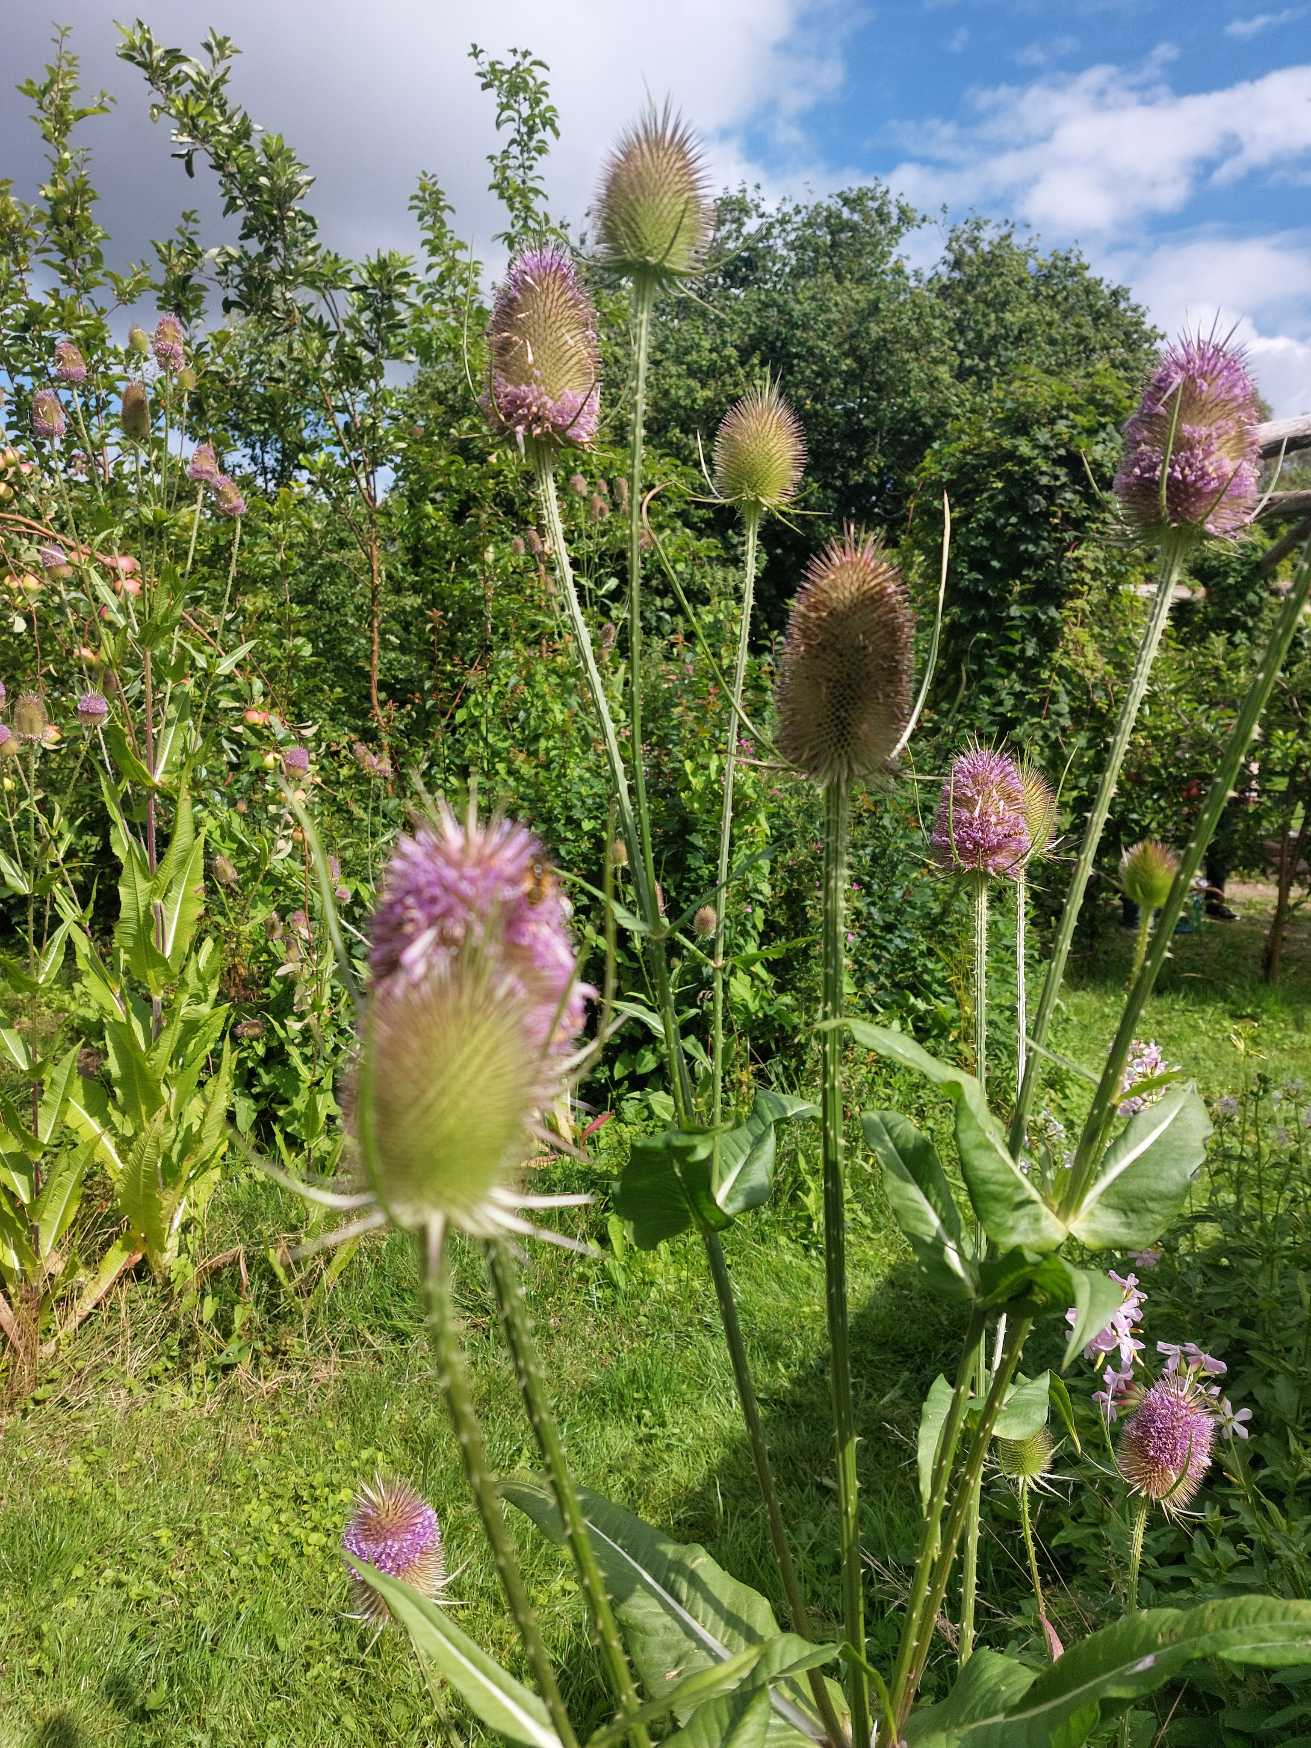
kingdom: Plantae
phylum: Tracheophyta
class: Magnoliopsida
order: Dipsacales
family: Caprifoliaceae
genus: Dipsacus
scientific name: Dipsacus fullonum
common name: Gærde-kartebolle
